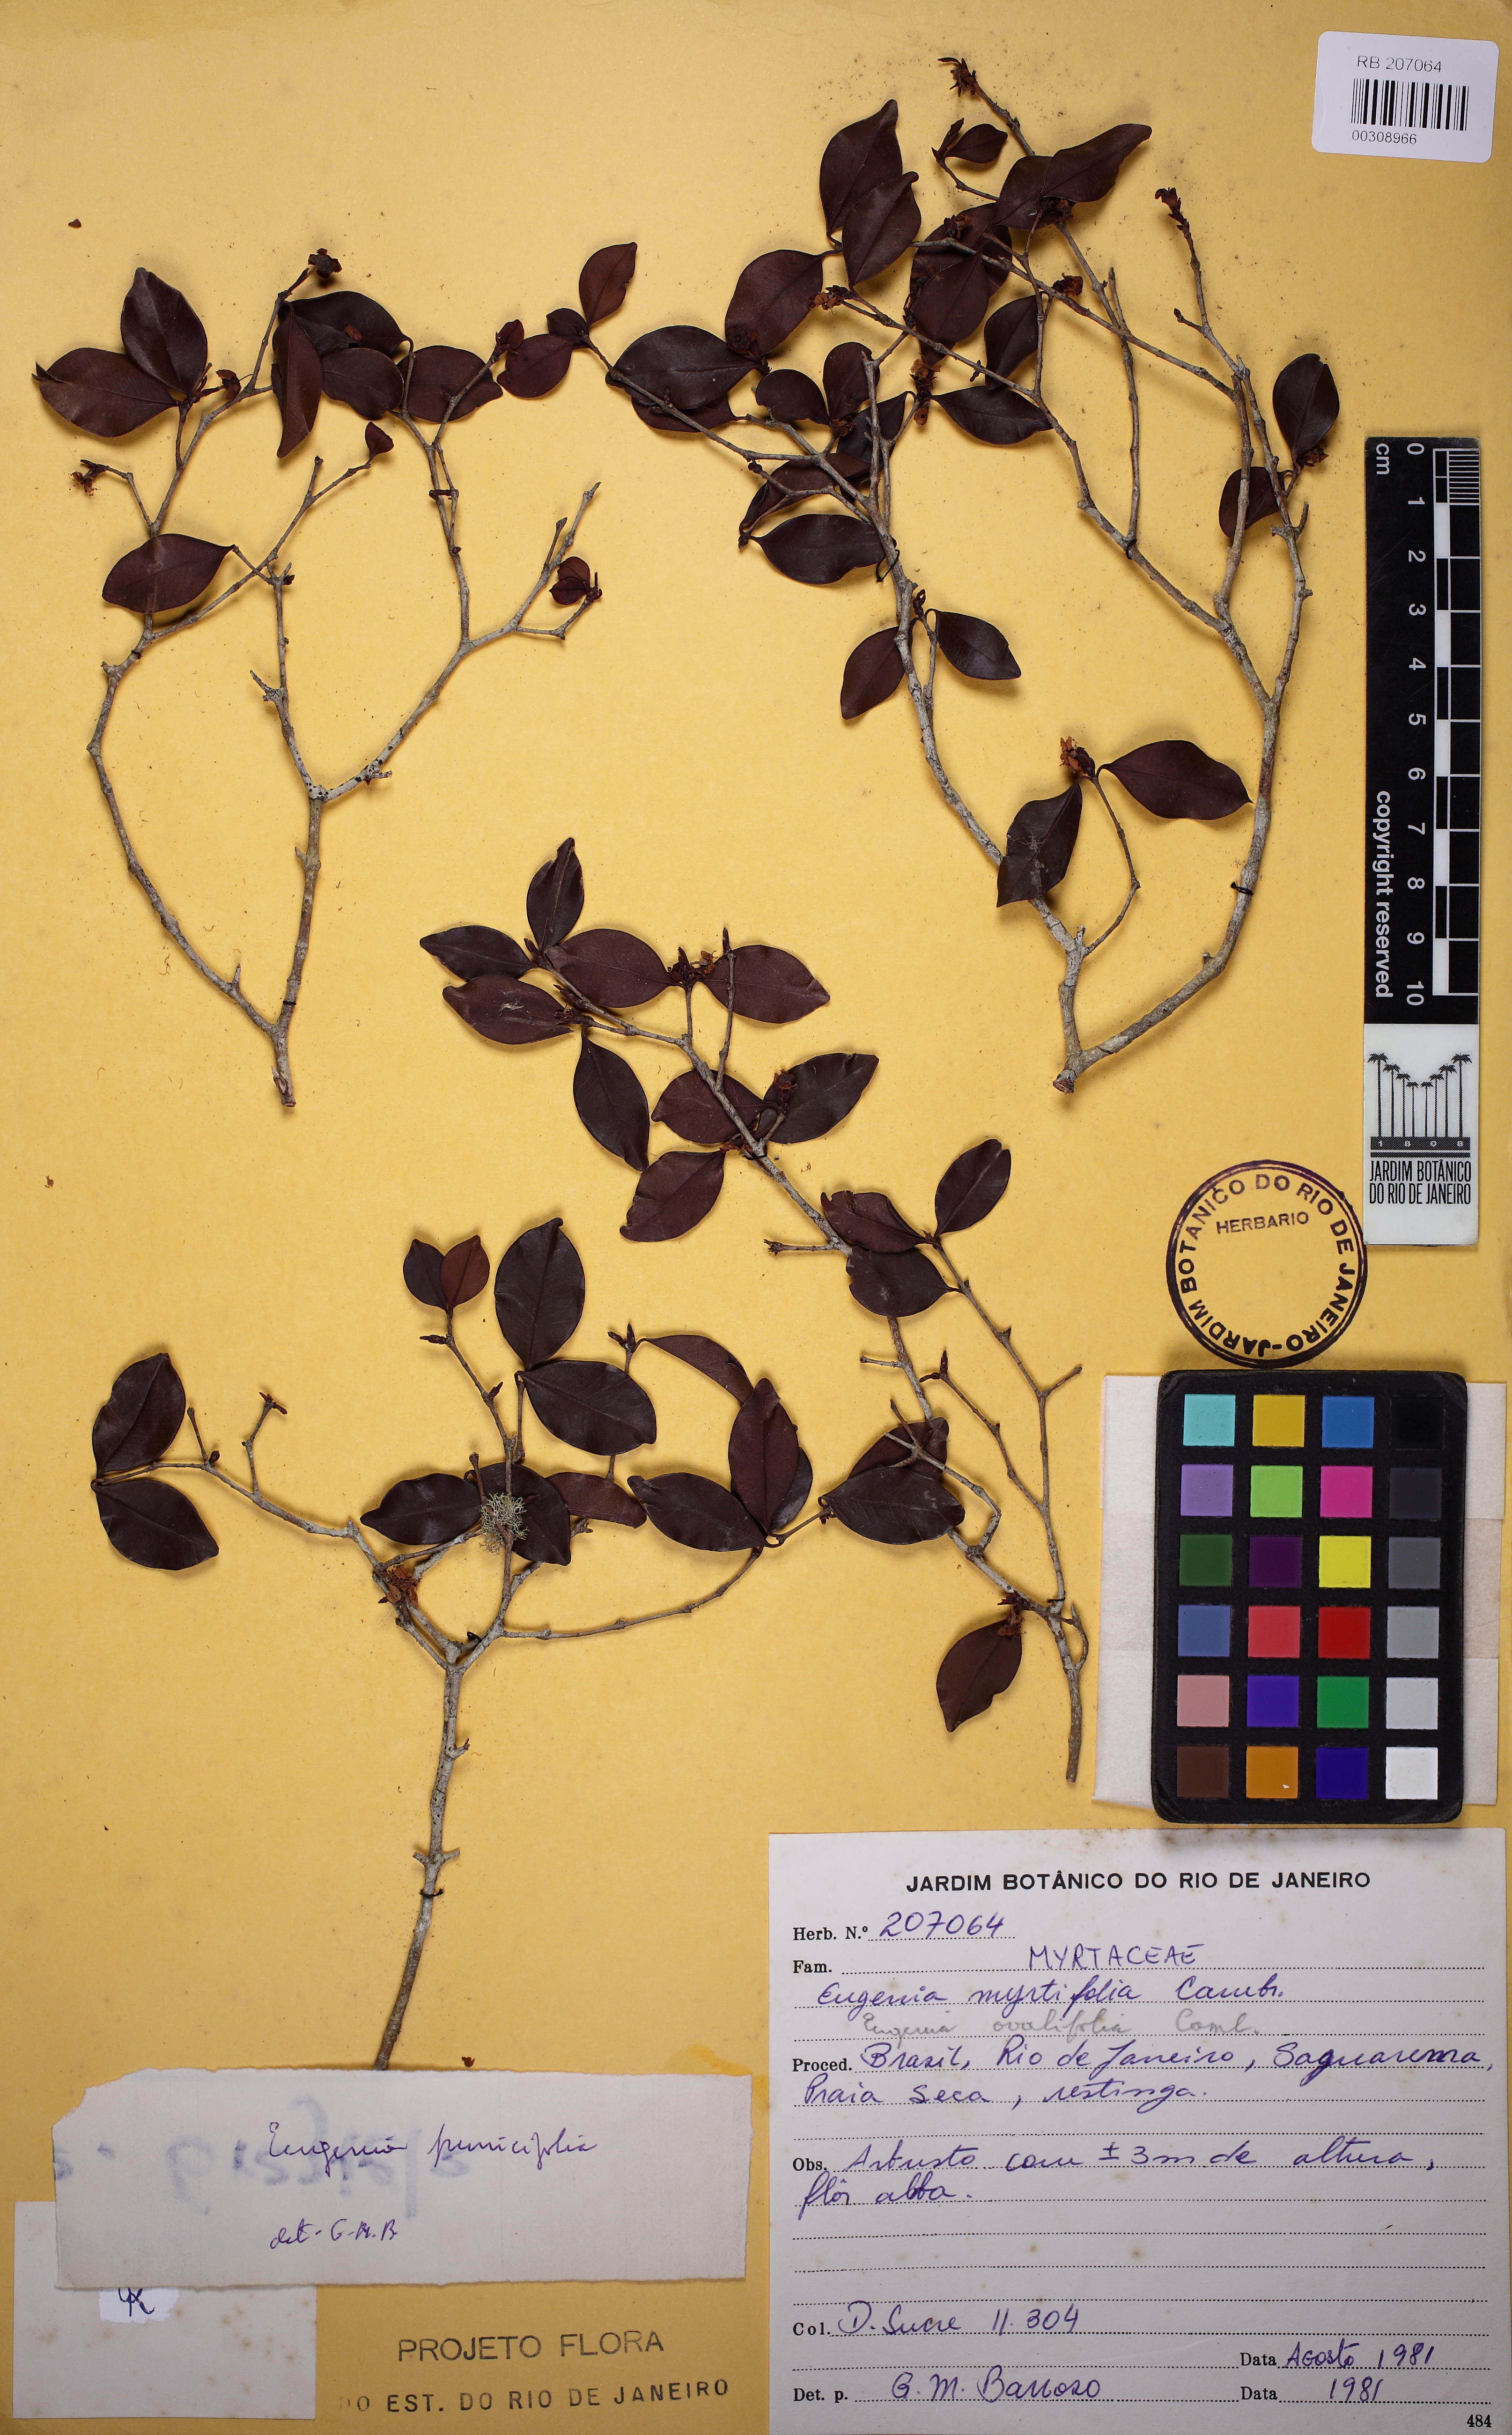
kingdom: Plantae
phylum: Tracheophyta
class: Magnoliopsida
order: Myrtales
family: Myrtaceae
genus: Eugenia
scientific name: Eugenia punicifolia
